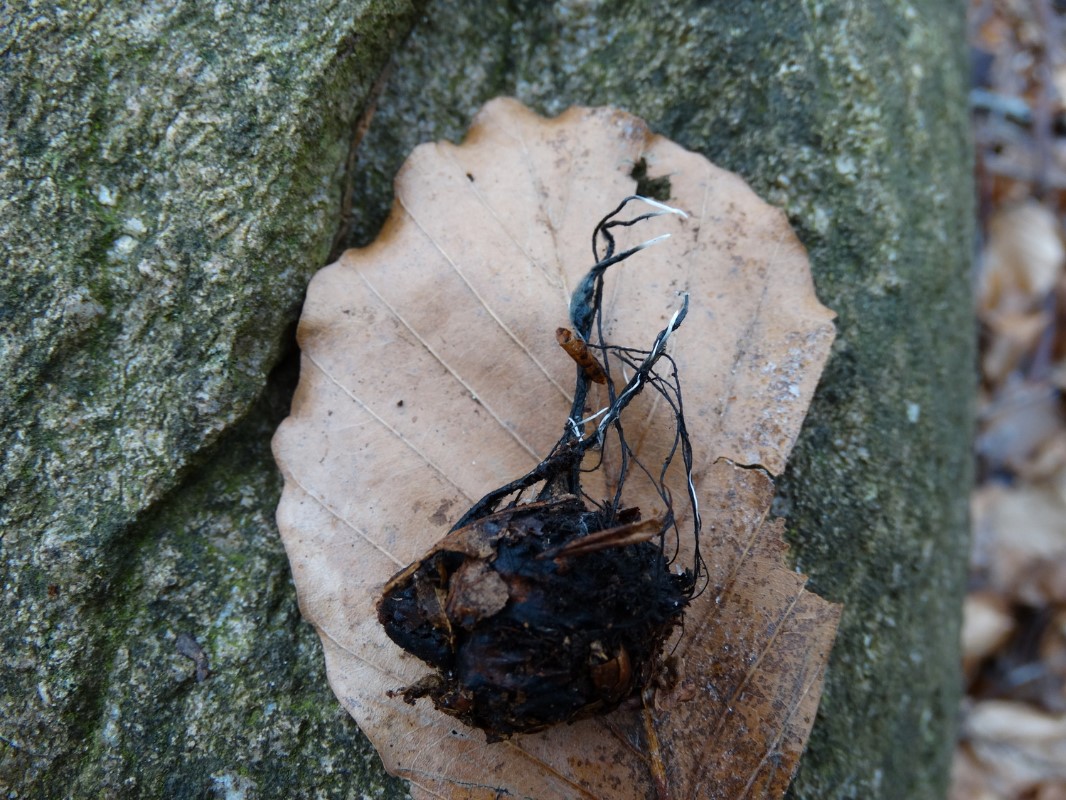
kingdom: Fungi
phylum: Ascomycota
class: Sordariomycetes
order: Xylariales
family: Xylariaceae
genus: Xylaria
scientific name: Xylaria carpophila
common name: bogskål-stødsvamp
